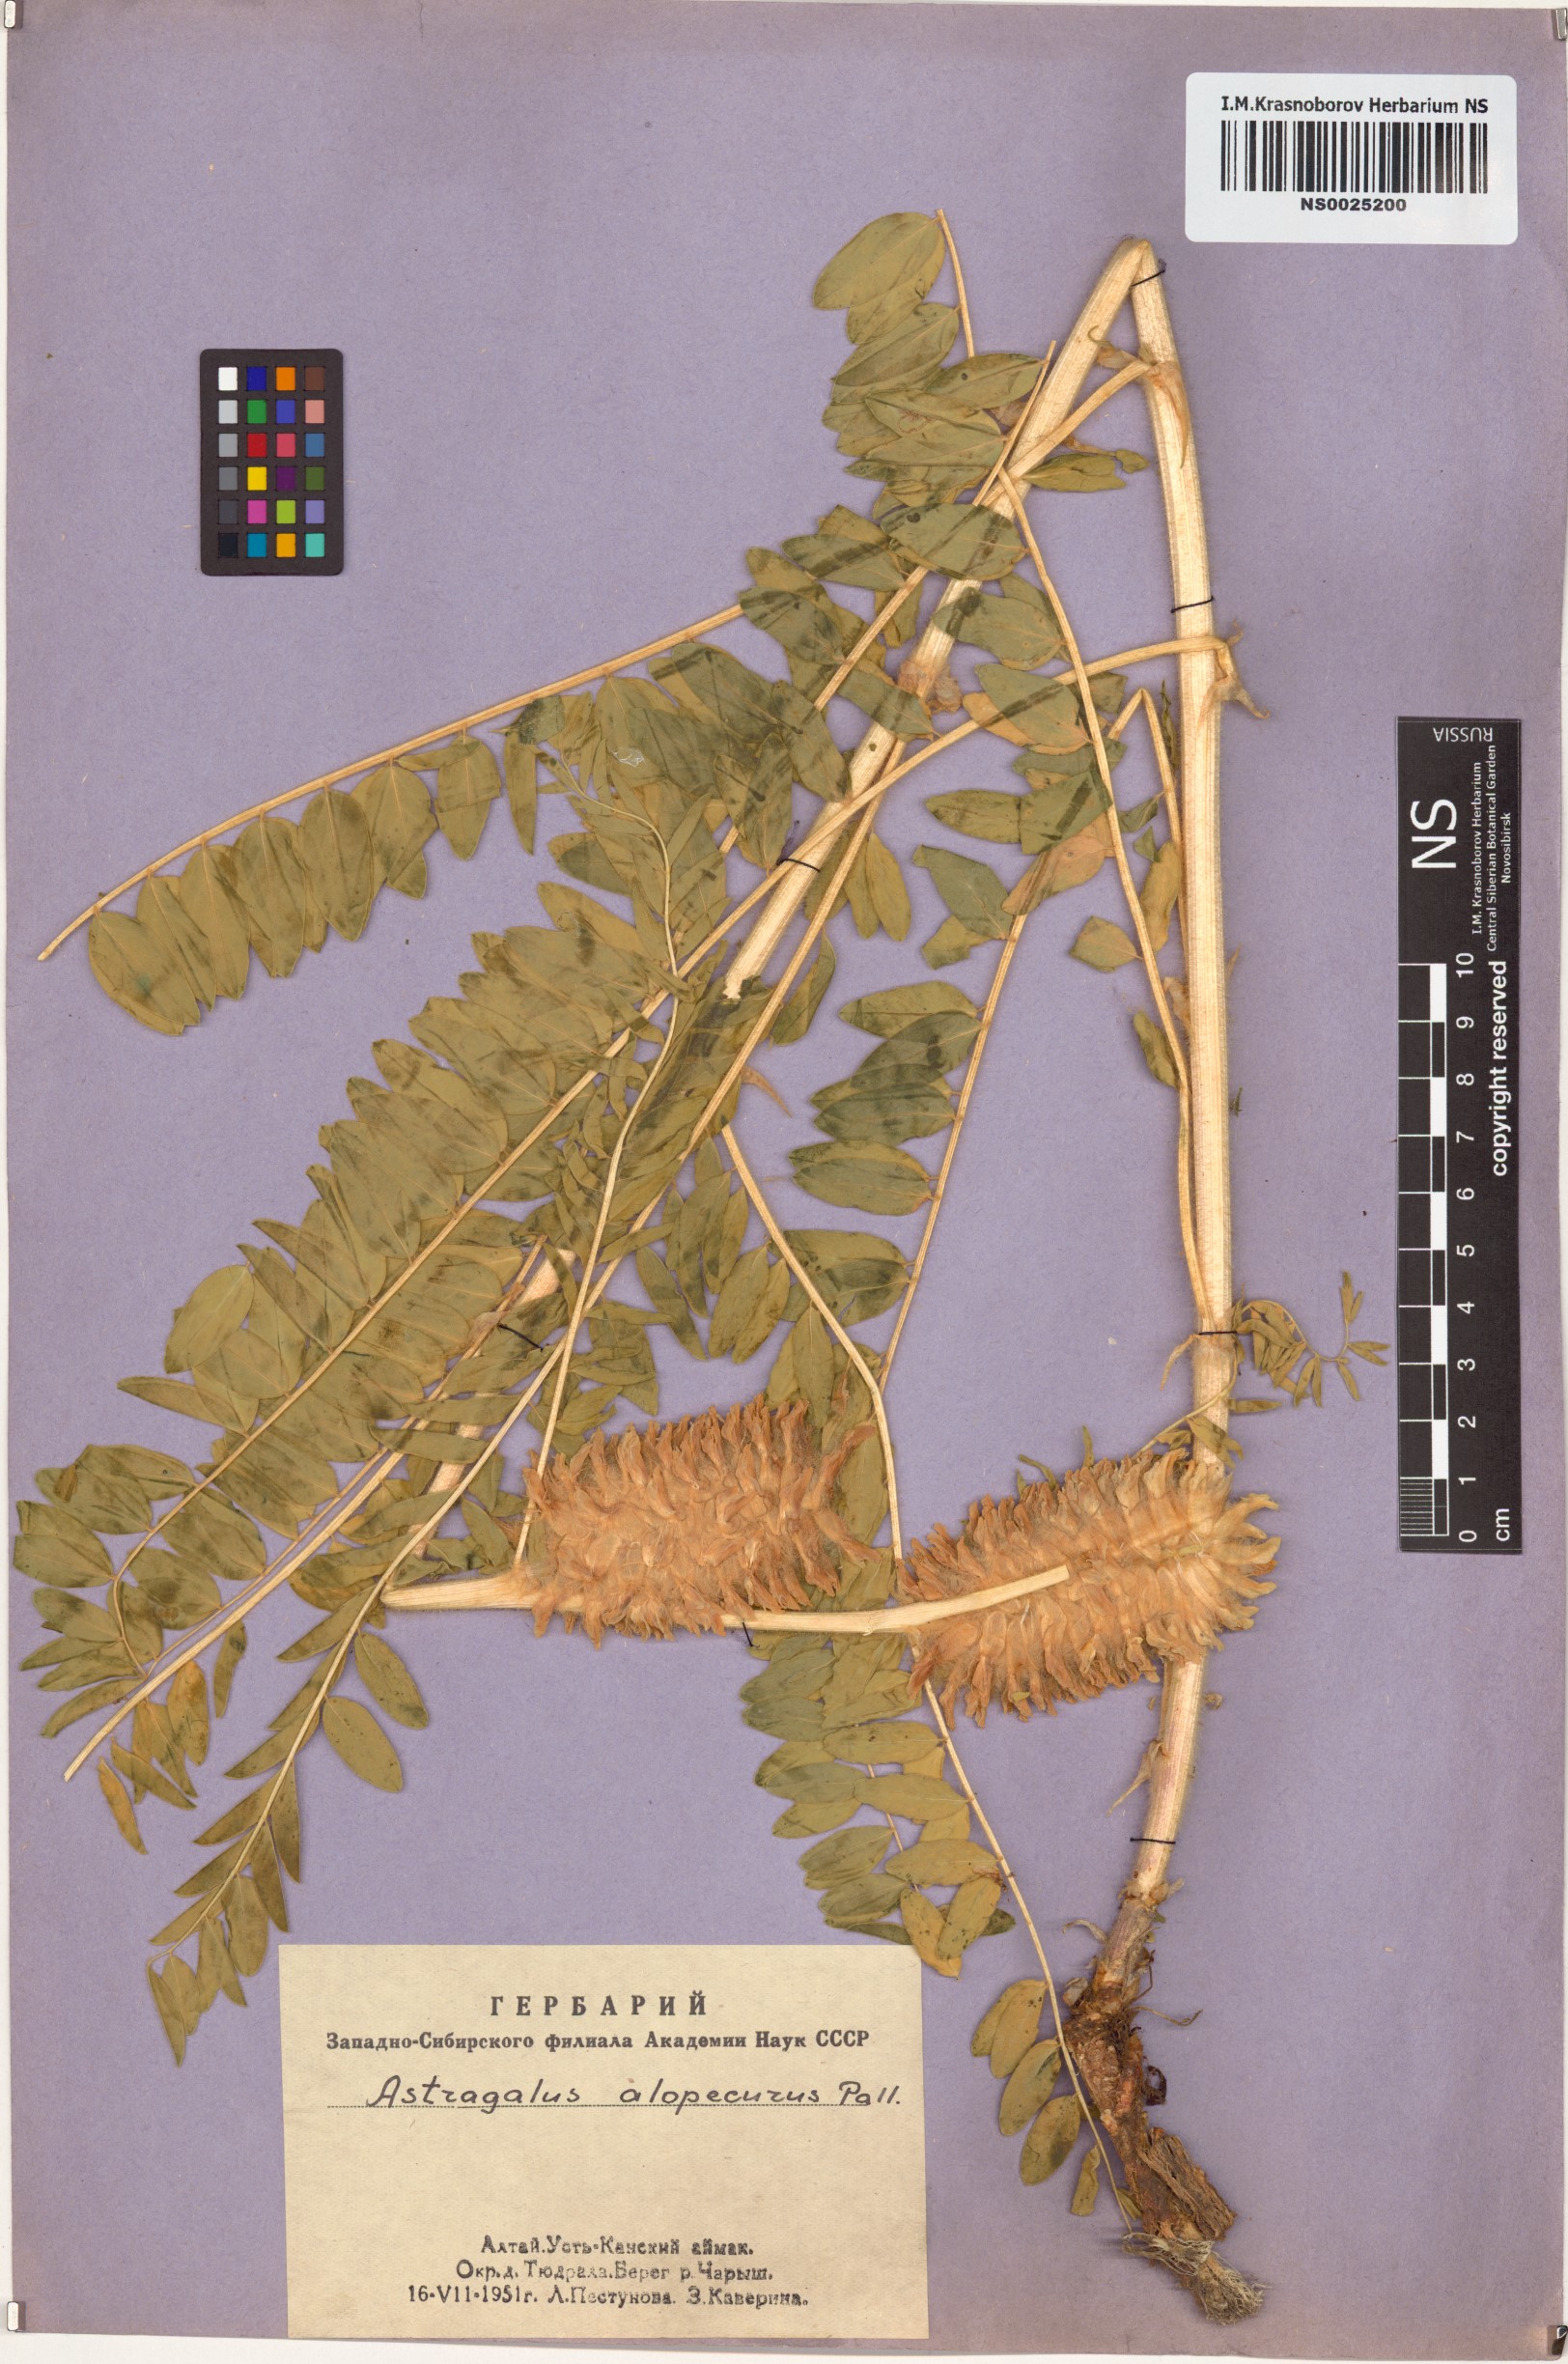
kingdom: Plantae
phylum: Tracheophyta
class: Magnoliopsida
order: Fabales
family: Fabaceae
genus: Astragalus
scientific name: Astragalus alopecurus
